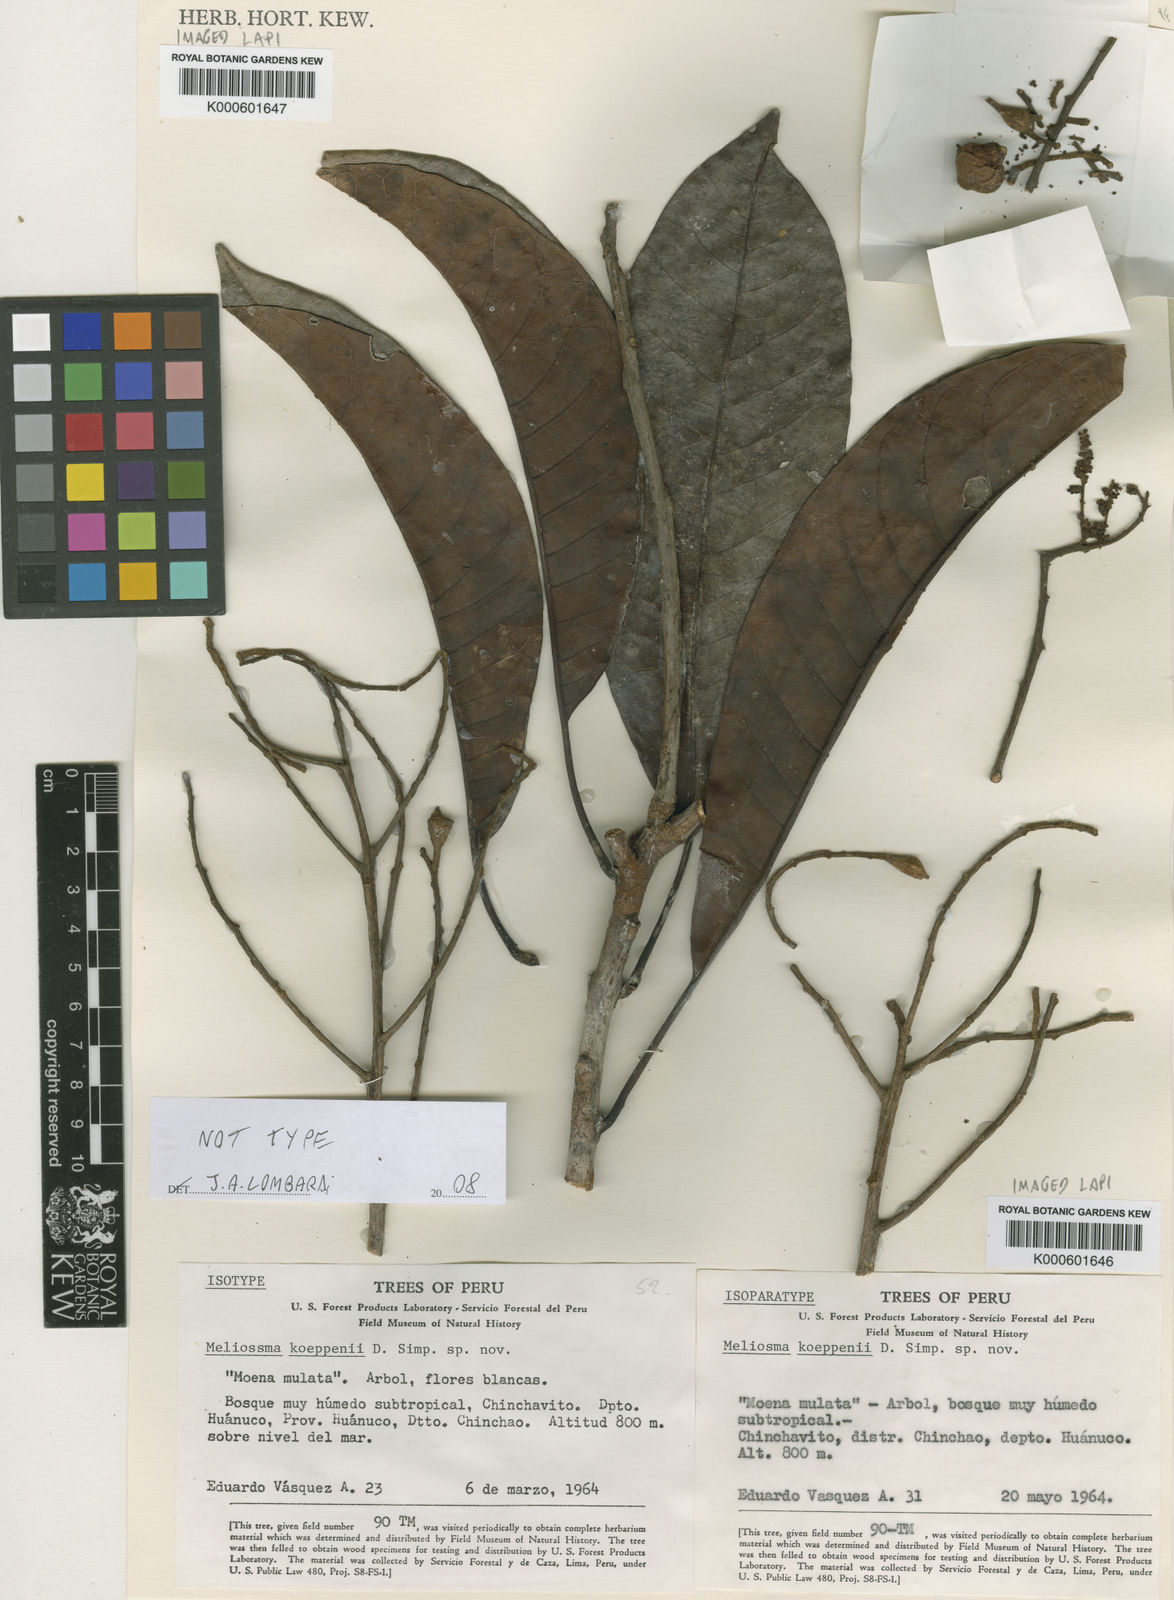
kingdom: Plantae
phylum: Tracheophyta
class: Magnoliopsida
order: Proteales
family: Sabiaceae
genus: Meliosma
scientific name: Meliosma
